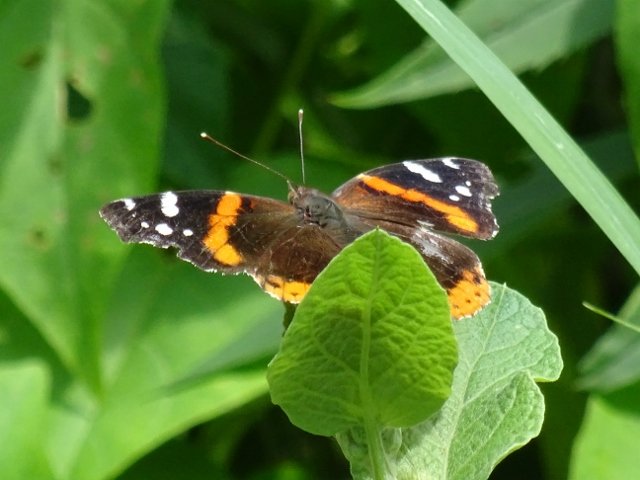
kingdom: Animalia
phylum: Arthropoda
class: Insecta
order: Lepidoptera
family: Nymphalidae
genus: Vanessa
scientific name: Vanessa atalanta
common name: Red Admiral
